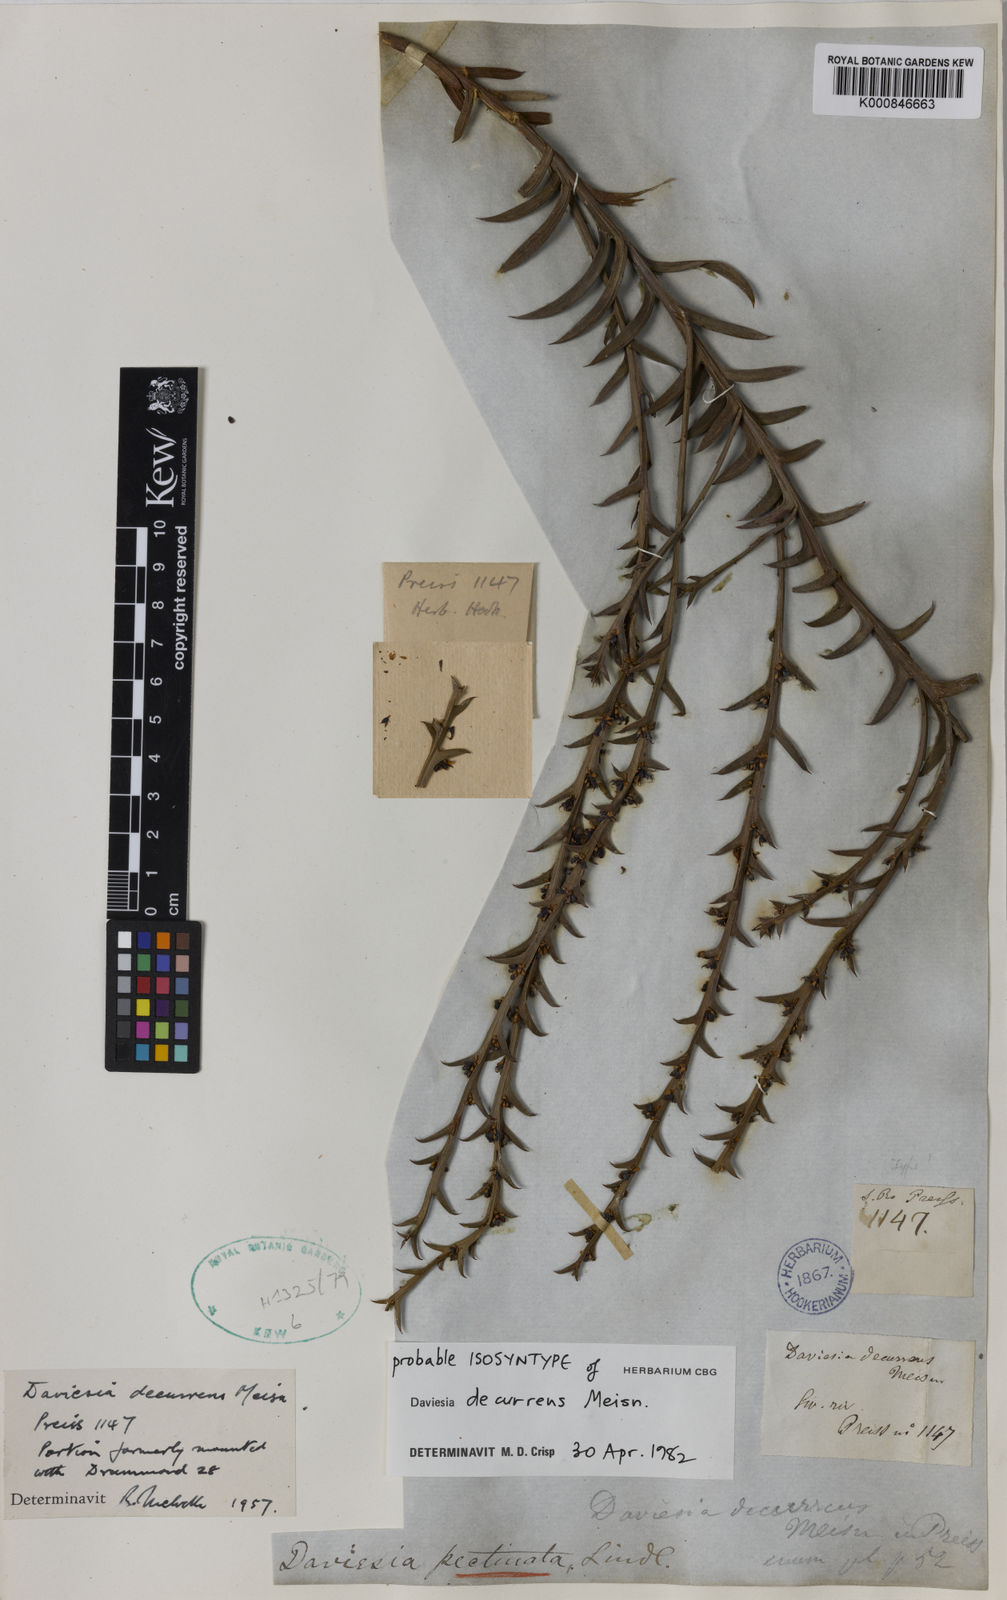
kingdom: Plantae
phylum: Tracheophyta
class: Magnoliopsida
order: Fabales
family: Fabaceae
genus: Daviesia
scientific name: Daviesia decurrens
